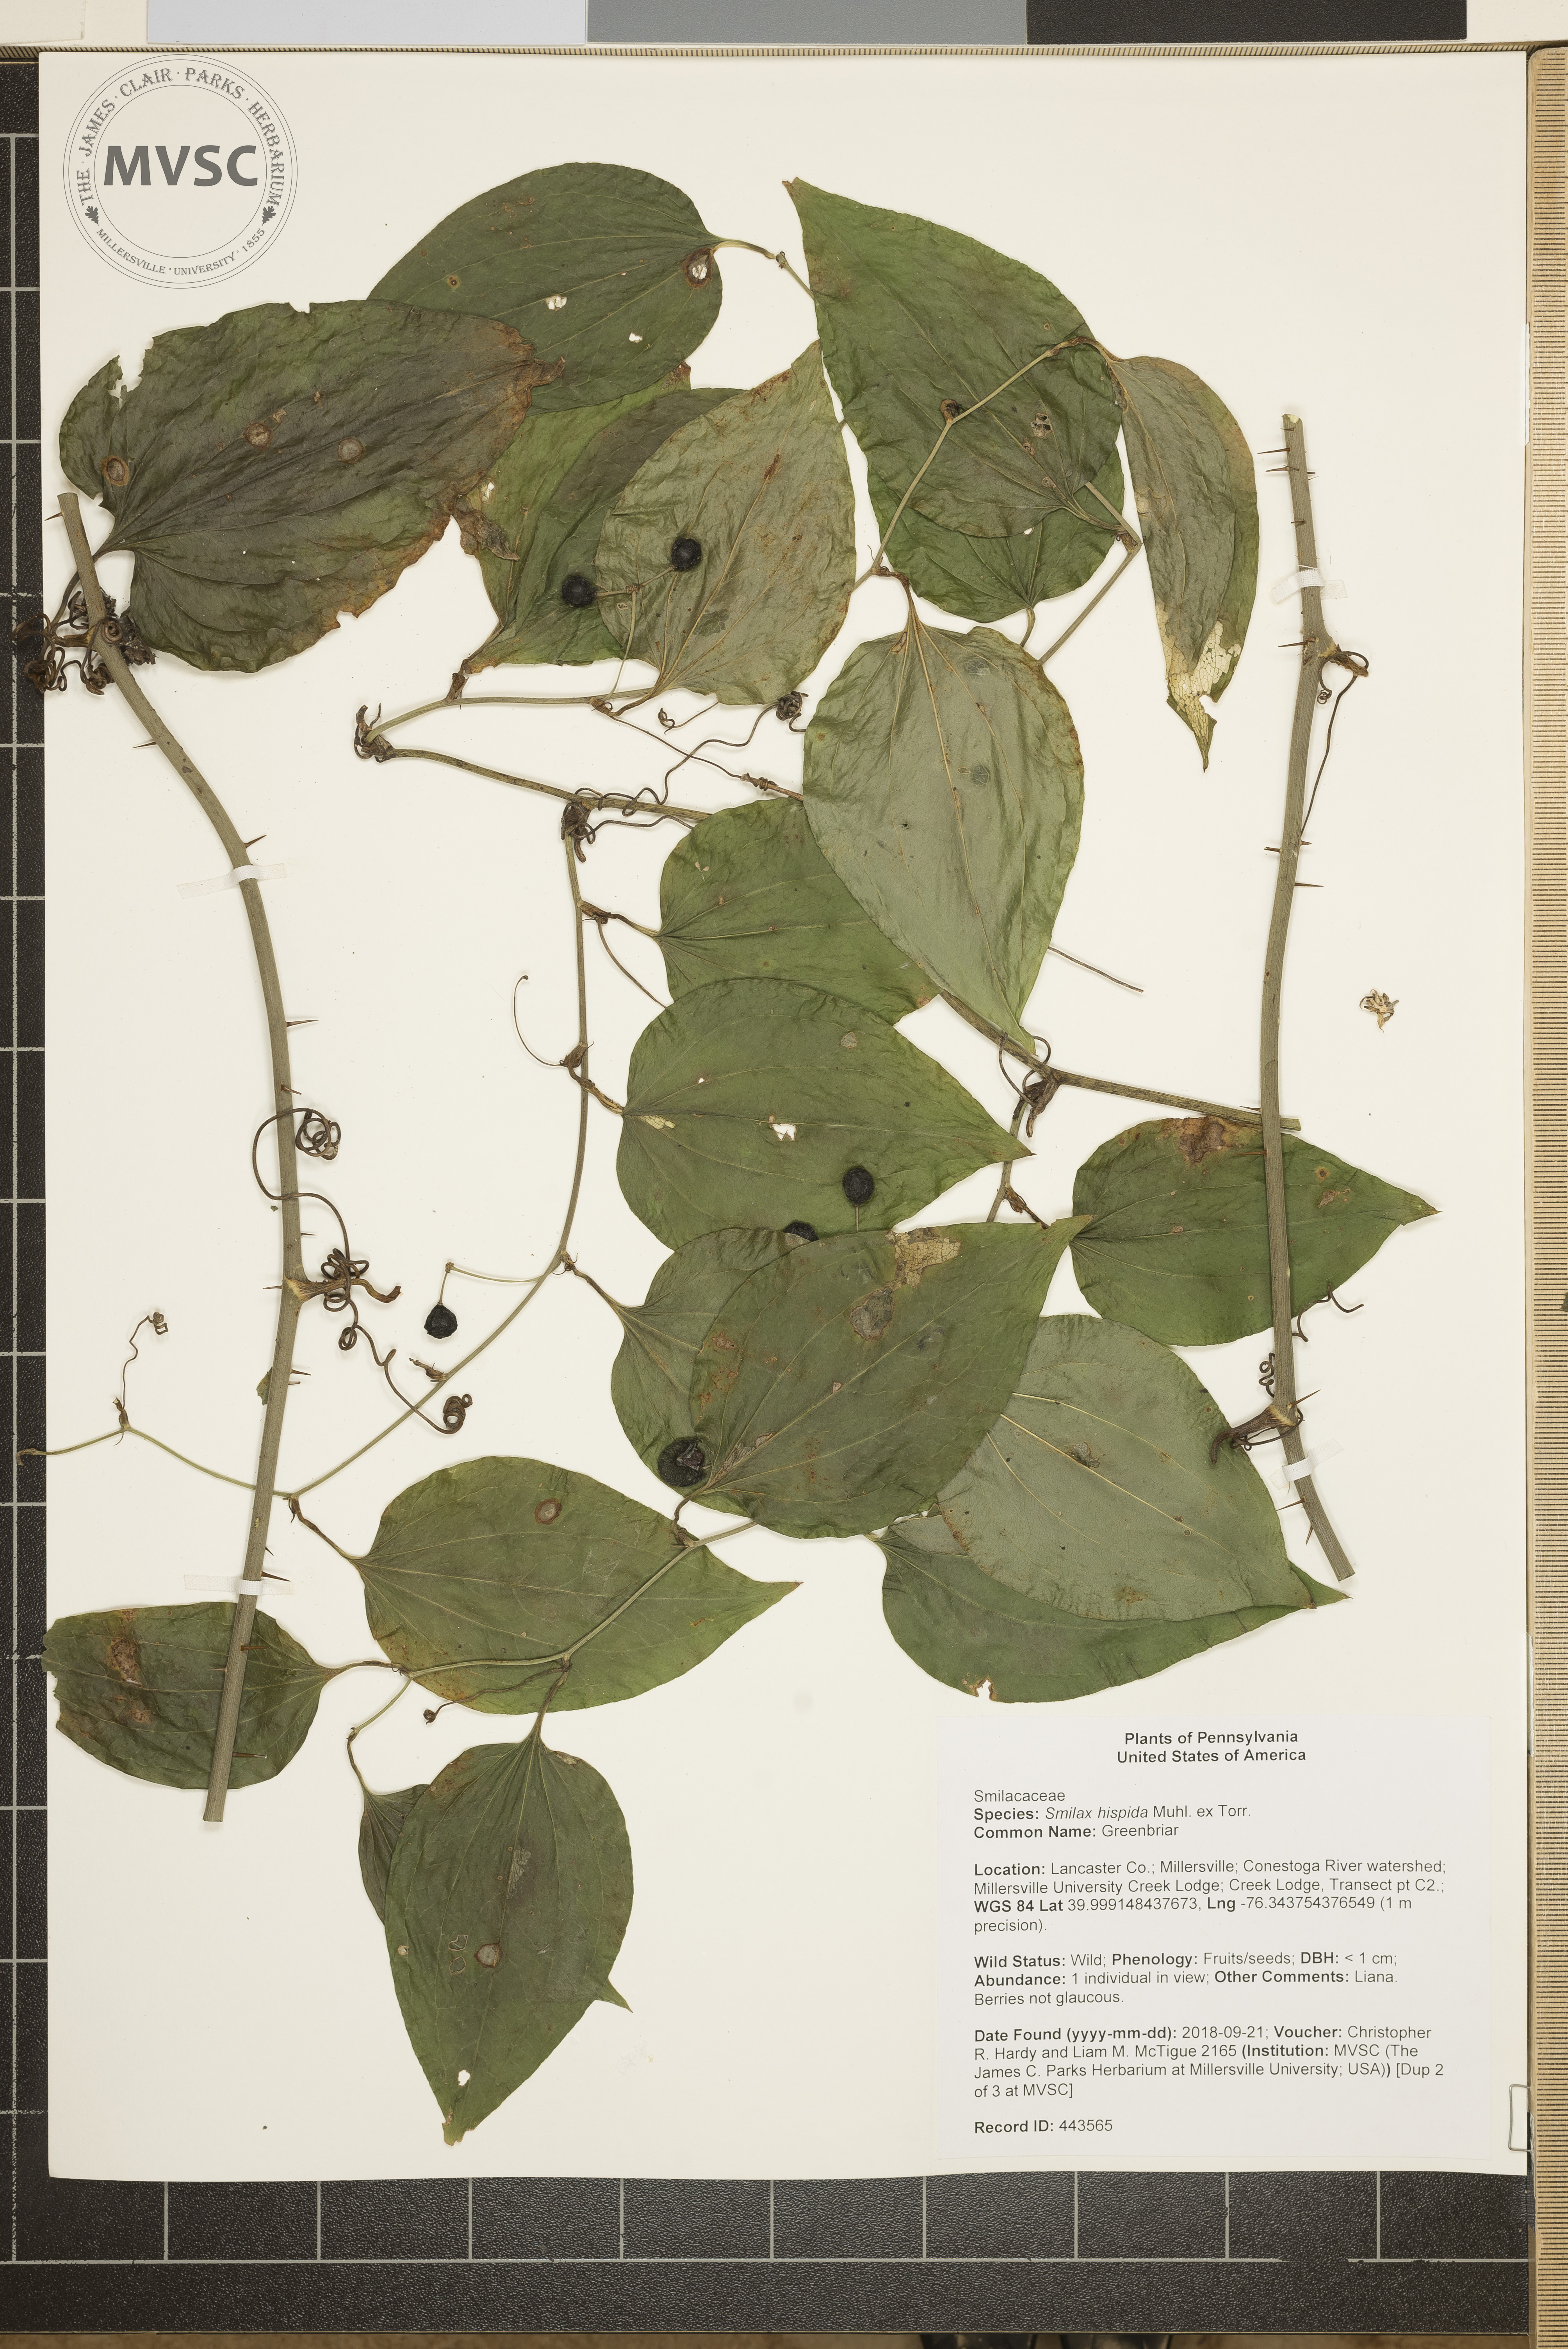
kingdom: Plantae
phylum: Tracheophyta
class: Liliopsida
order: Liliales
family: Smilacaceae
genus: Smilax
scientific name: Smilax tamnoides
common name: Greenbriar
